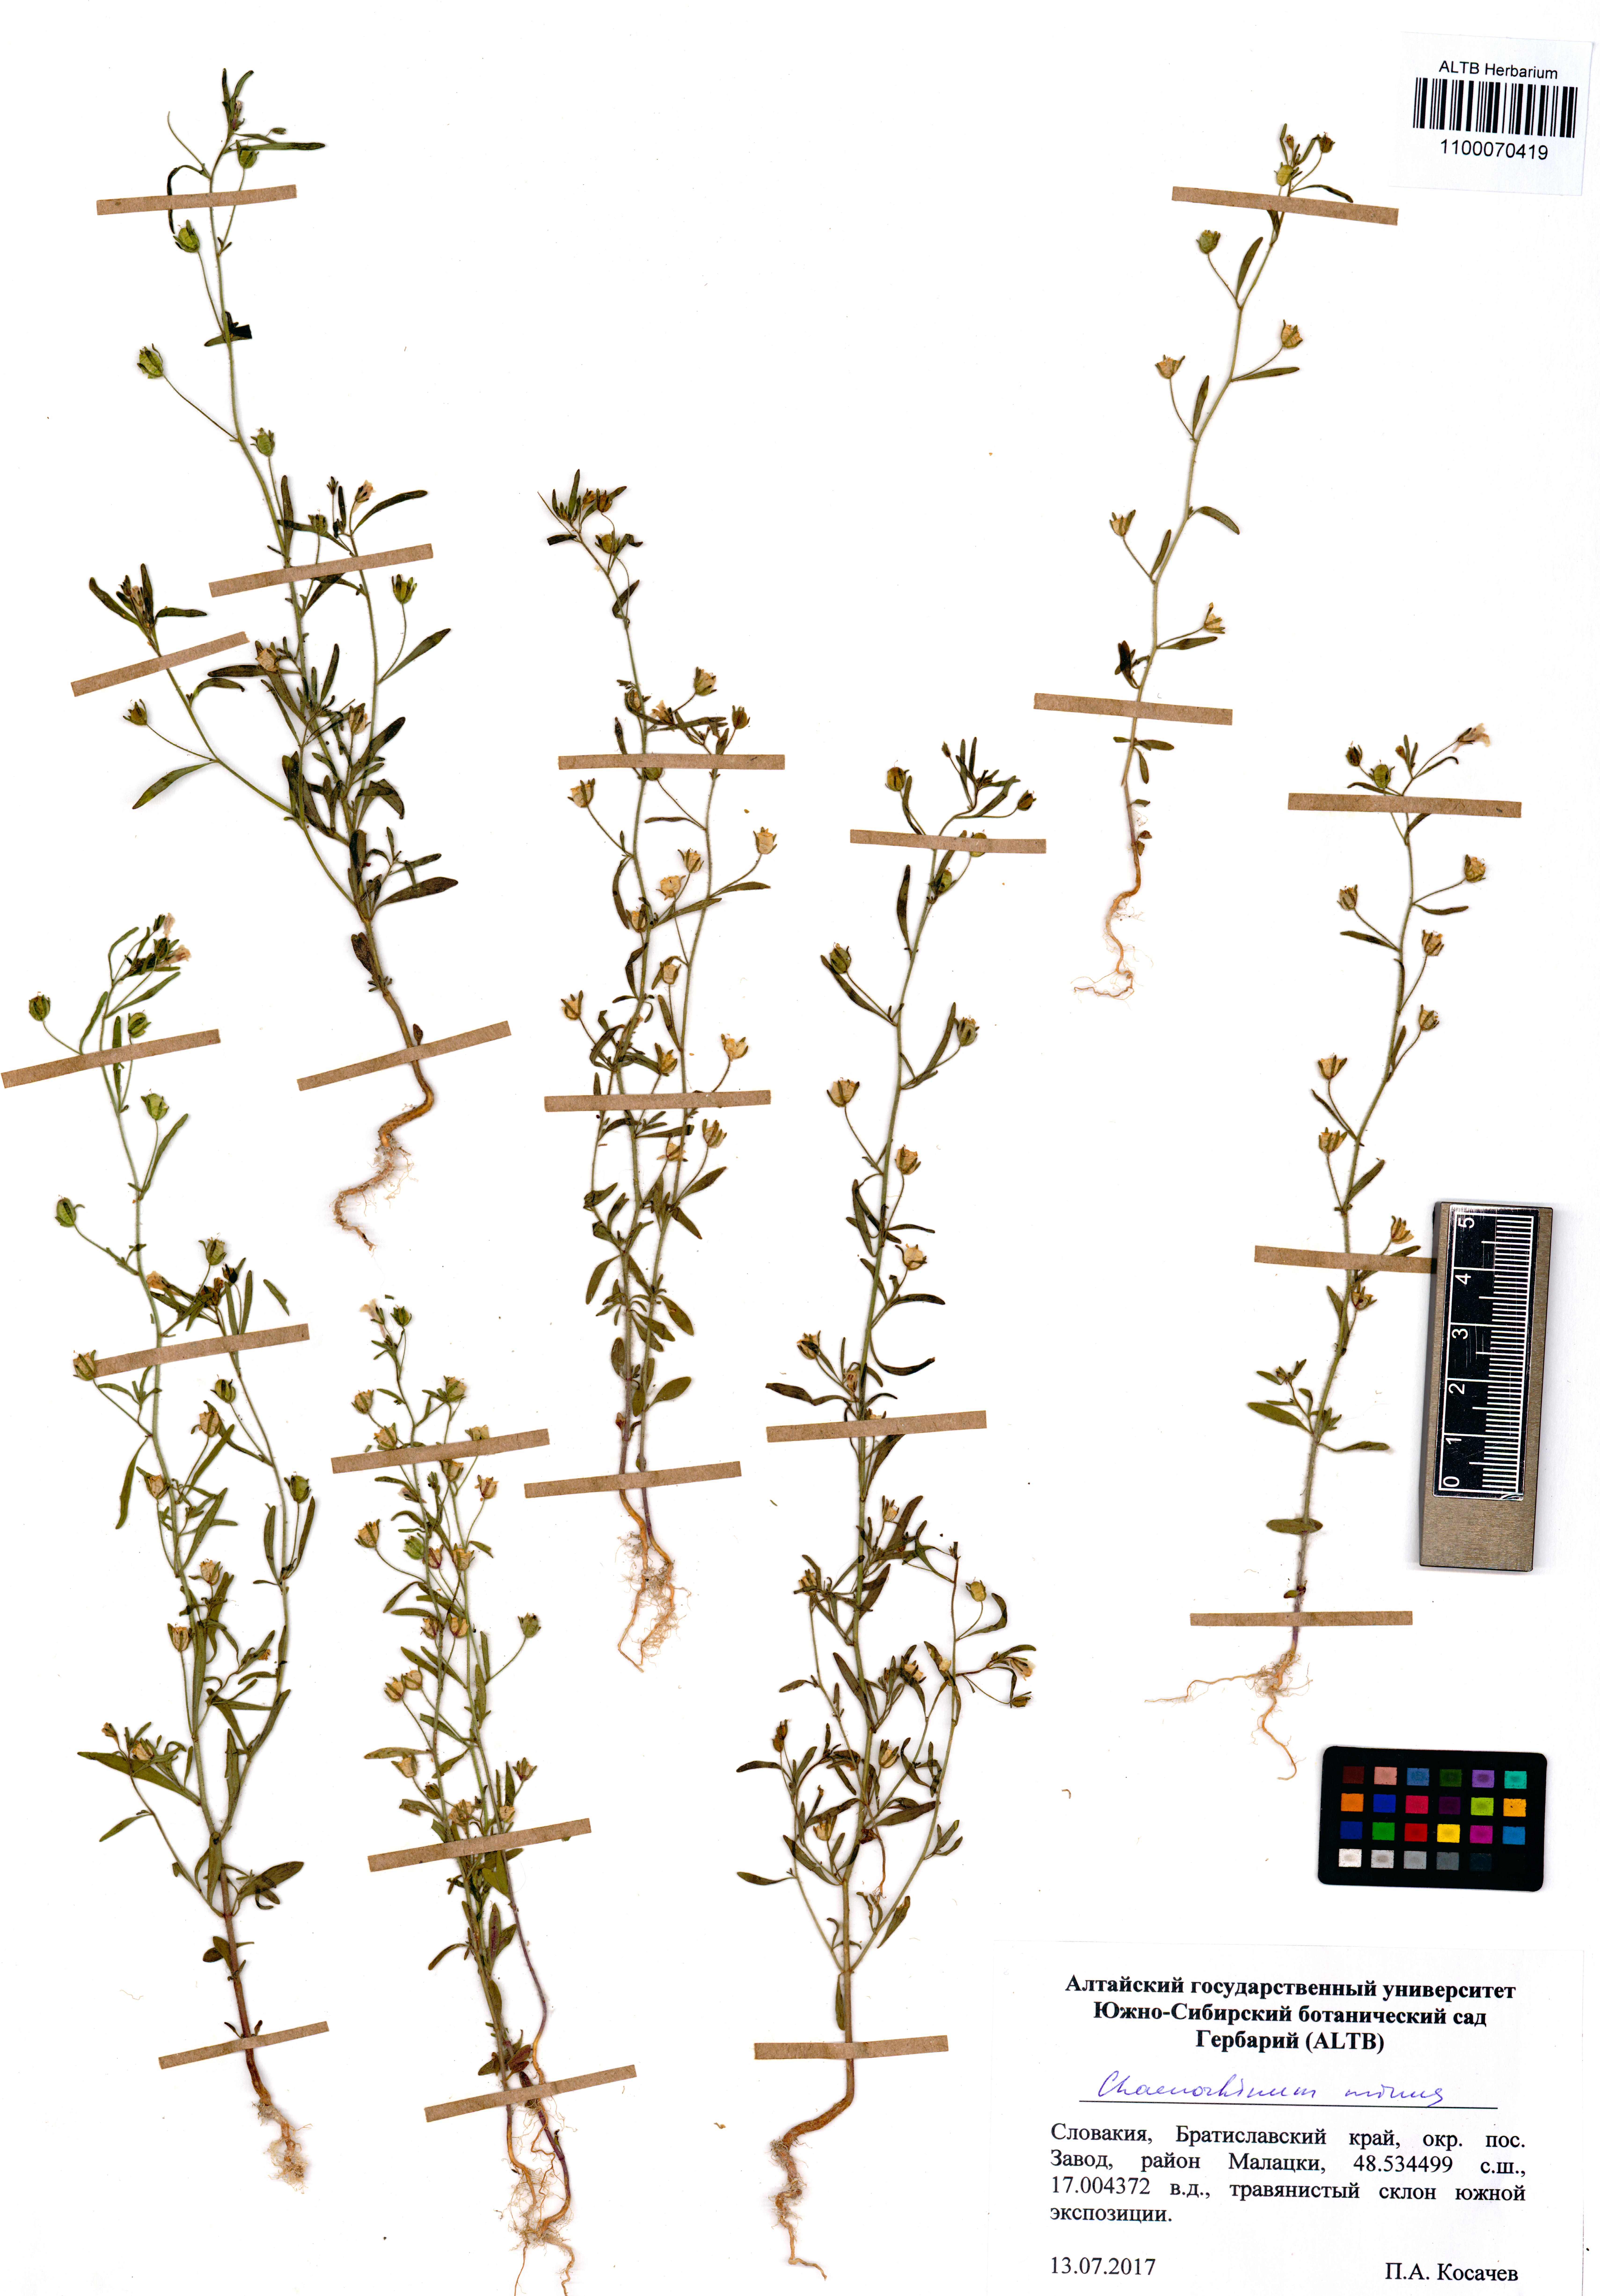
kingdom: Plantae
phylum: Tracheophyta
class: Magnoliopsida
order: Lamiales
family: Plantaginaceae
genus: Chaenorhinum
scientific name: Chaenorhinum minus
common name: Dwarf snapdragon
